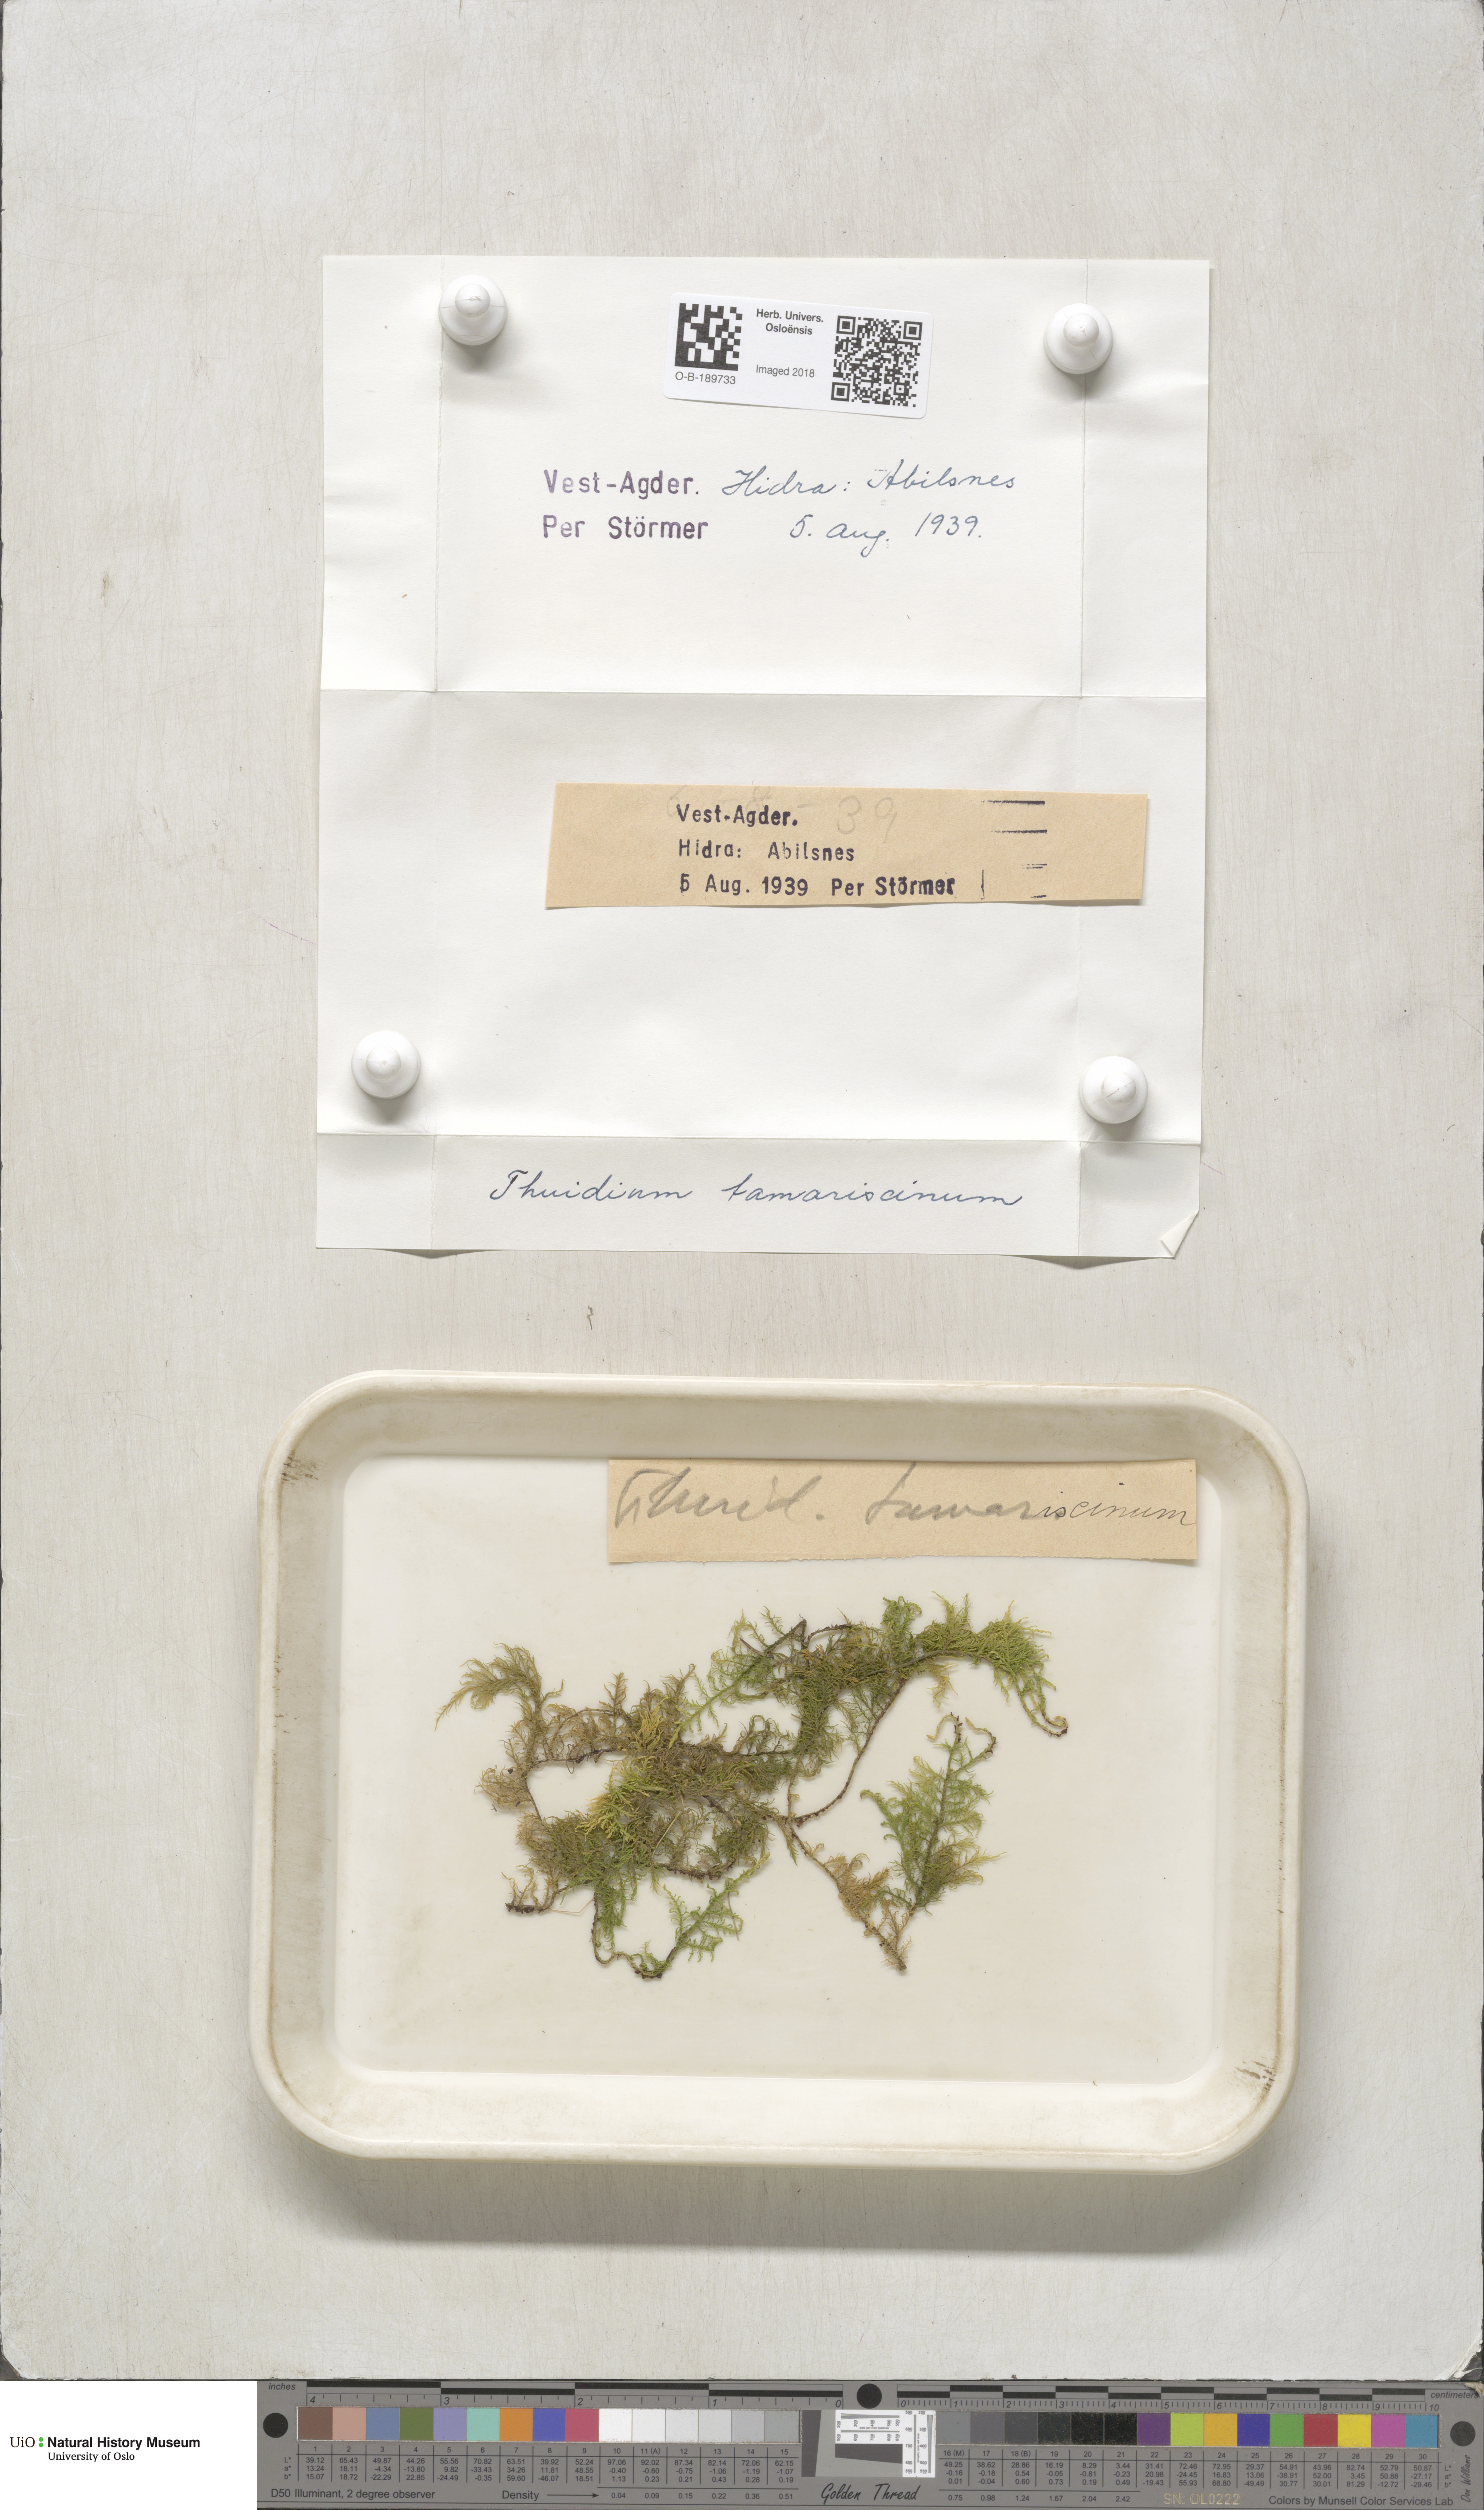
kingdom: Plantae
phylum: Bryophyta
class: Bryopsida
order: Hypnales
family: Thuidiaceae
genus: Thuidium
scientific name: Thuidium tamariscinum
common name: Common tamarisk-moss
